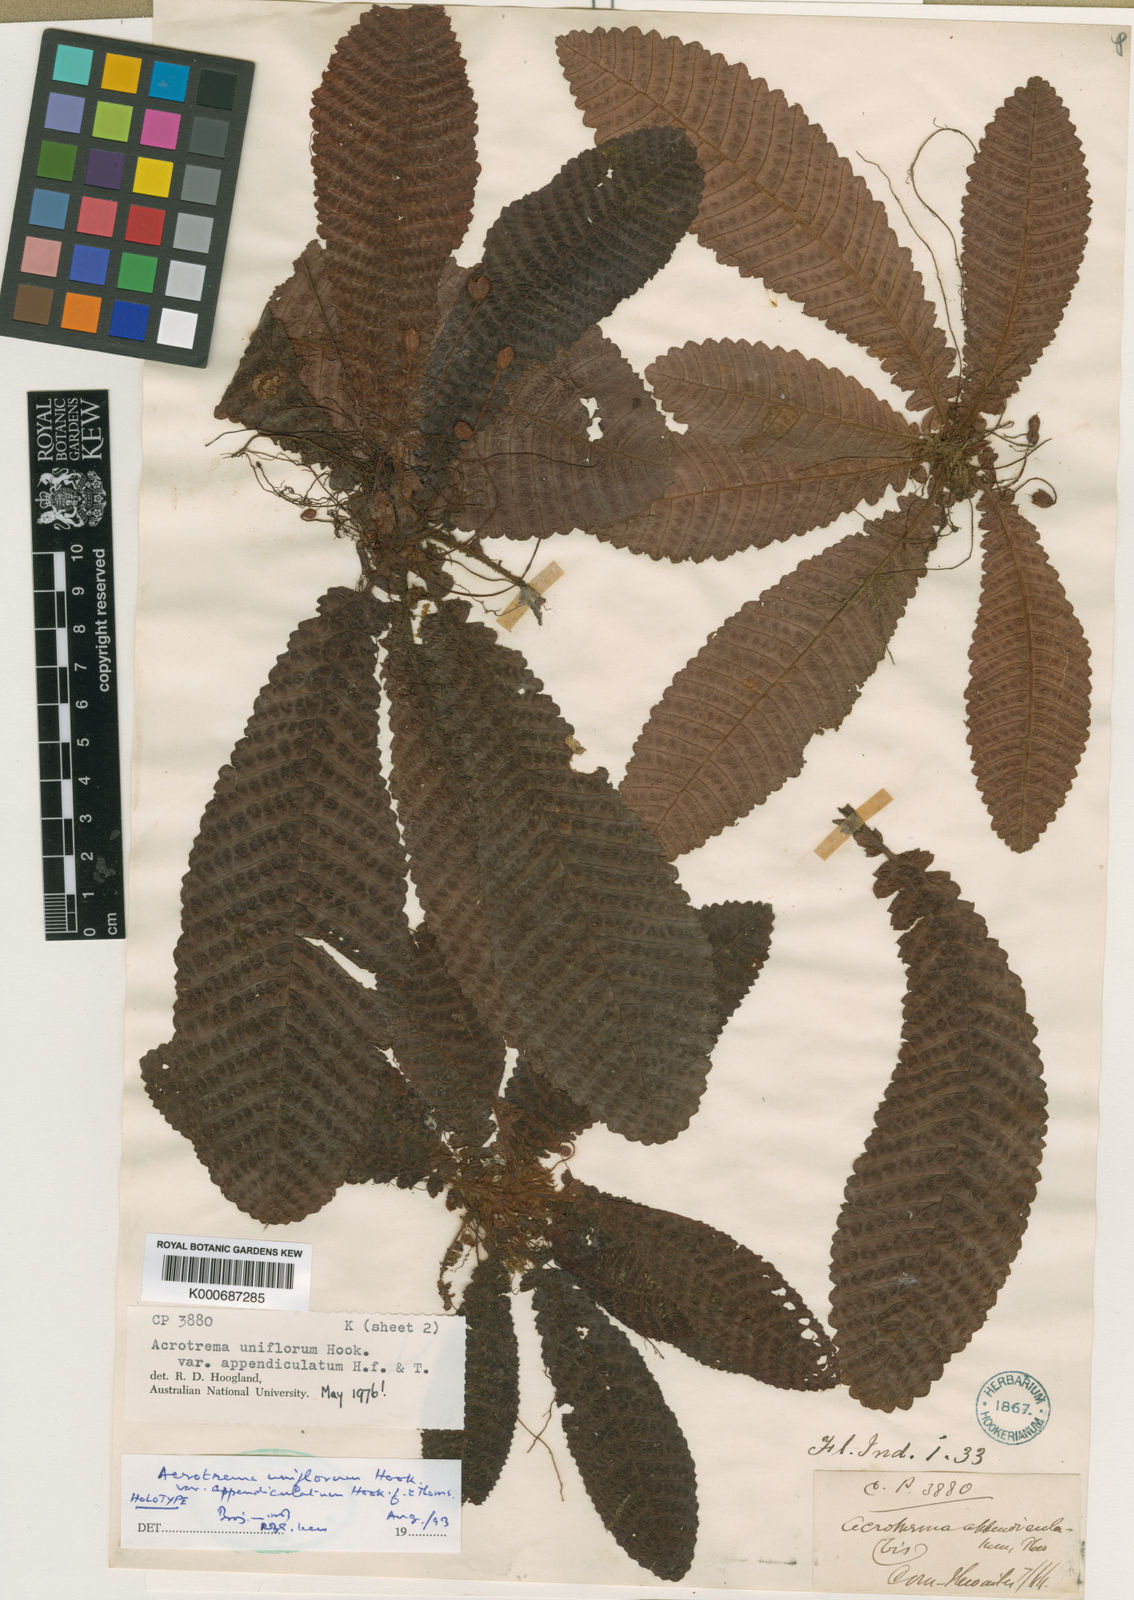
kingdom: Plantae
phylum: Tracheophyta
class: Magnoliopsida
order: Dilleniales
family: Dilleniaceae
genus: Acrotrema
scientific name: Acrotrema uniflorum
